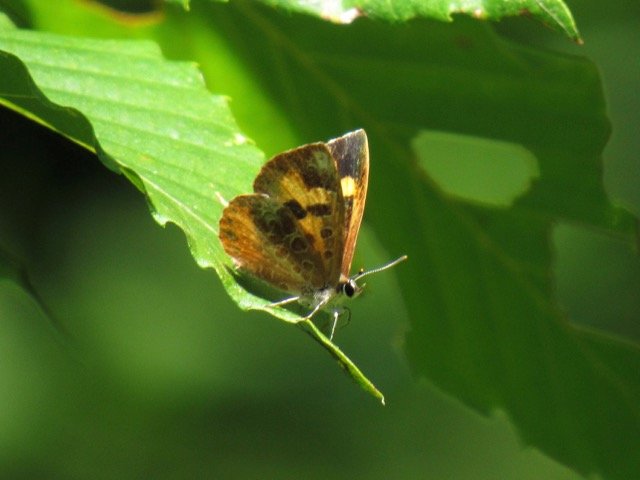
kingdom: Animalia
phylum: Arthropoda
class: Insecta
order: Lepidoptera
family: Lycaenidae
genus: Feniseca
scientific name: Feniseca tarquinius
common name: Harvester
